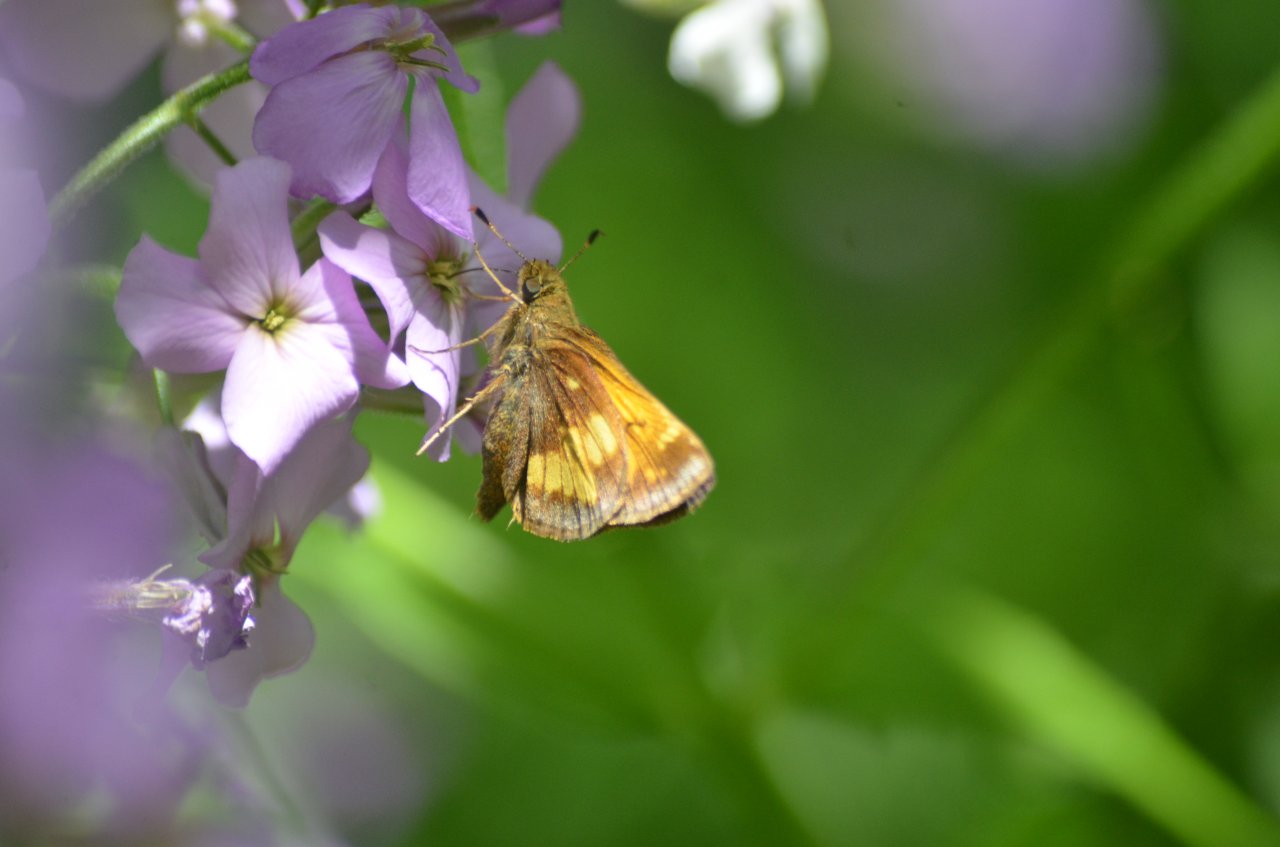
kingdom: Animalia
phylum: Arthropoda
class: Insecta
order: Lepidoptera
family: Hesperiidae
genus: Lon
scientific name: Lon hobomok
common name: Hobomok Skipper
